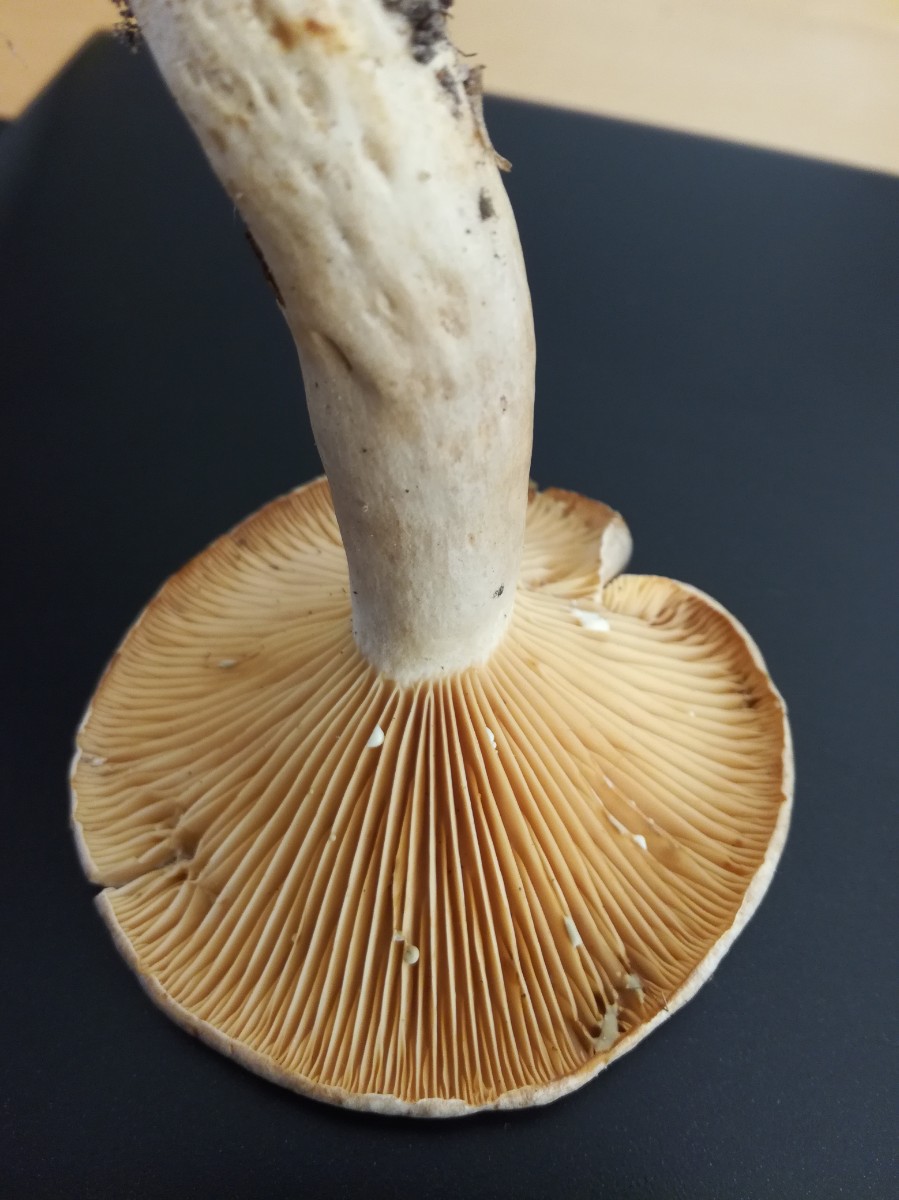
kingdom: Fungi
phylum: Basidiomycota
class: Agaricomycetes
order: Russulales
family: Russulaceae
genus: Lactarius
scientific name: Lactarius pyrogalus
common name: hassel-mælkehat
